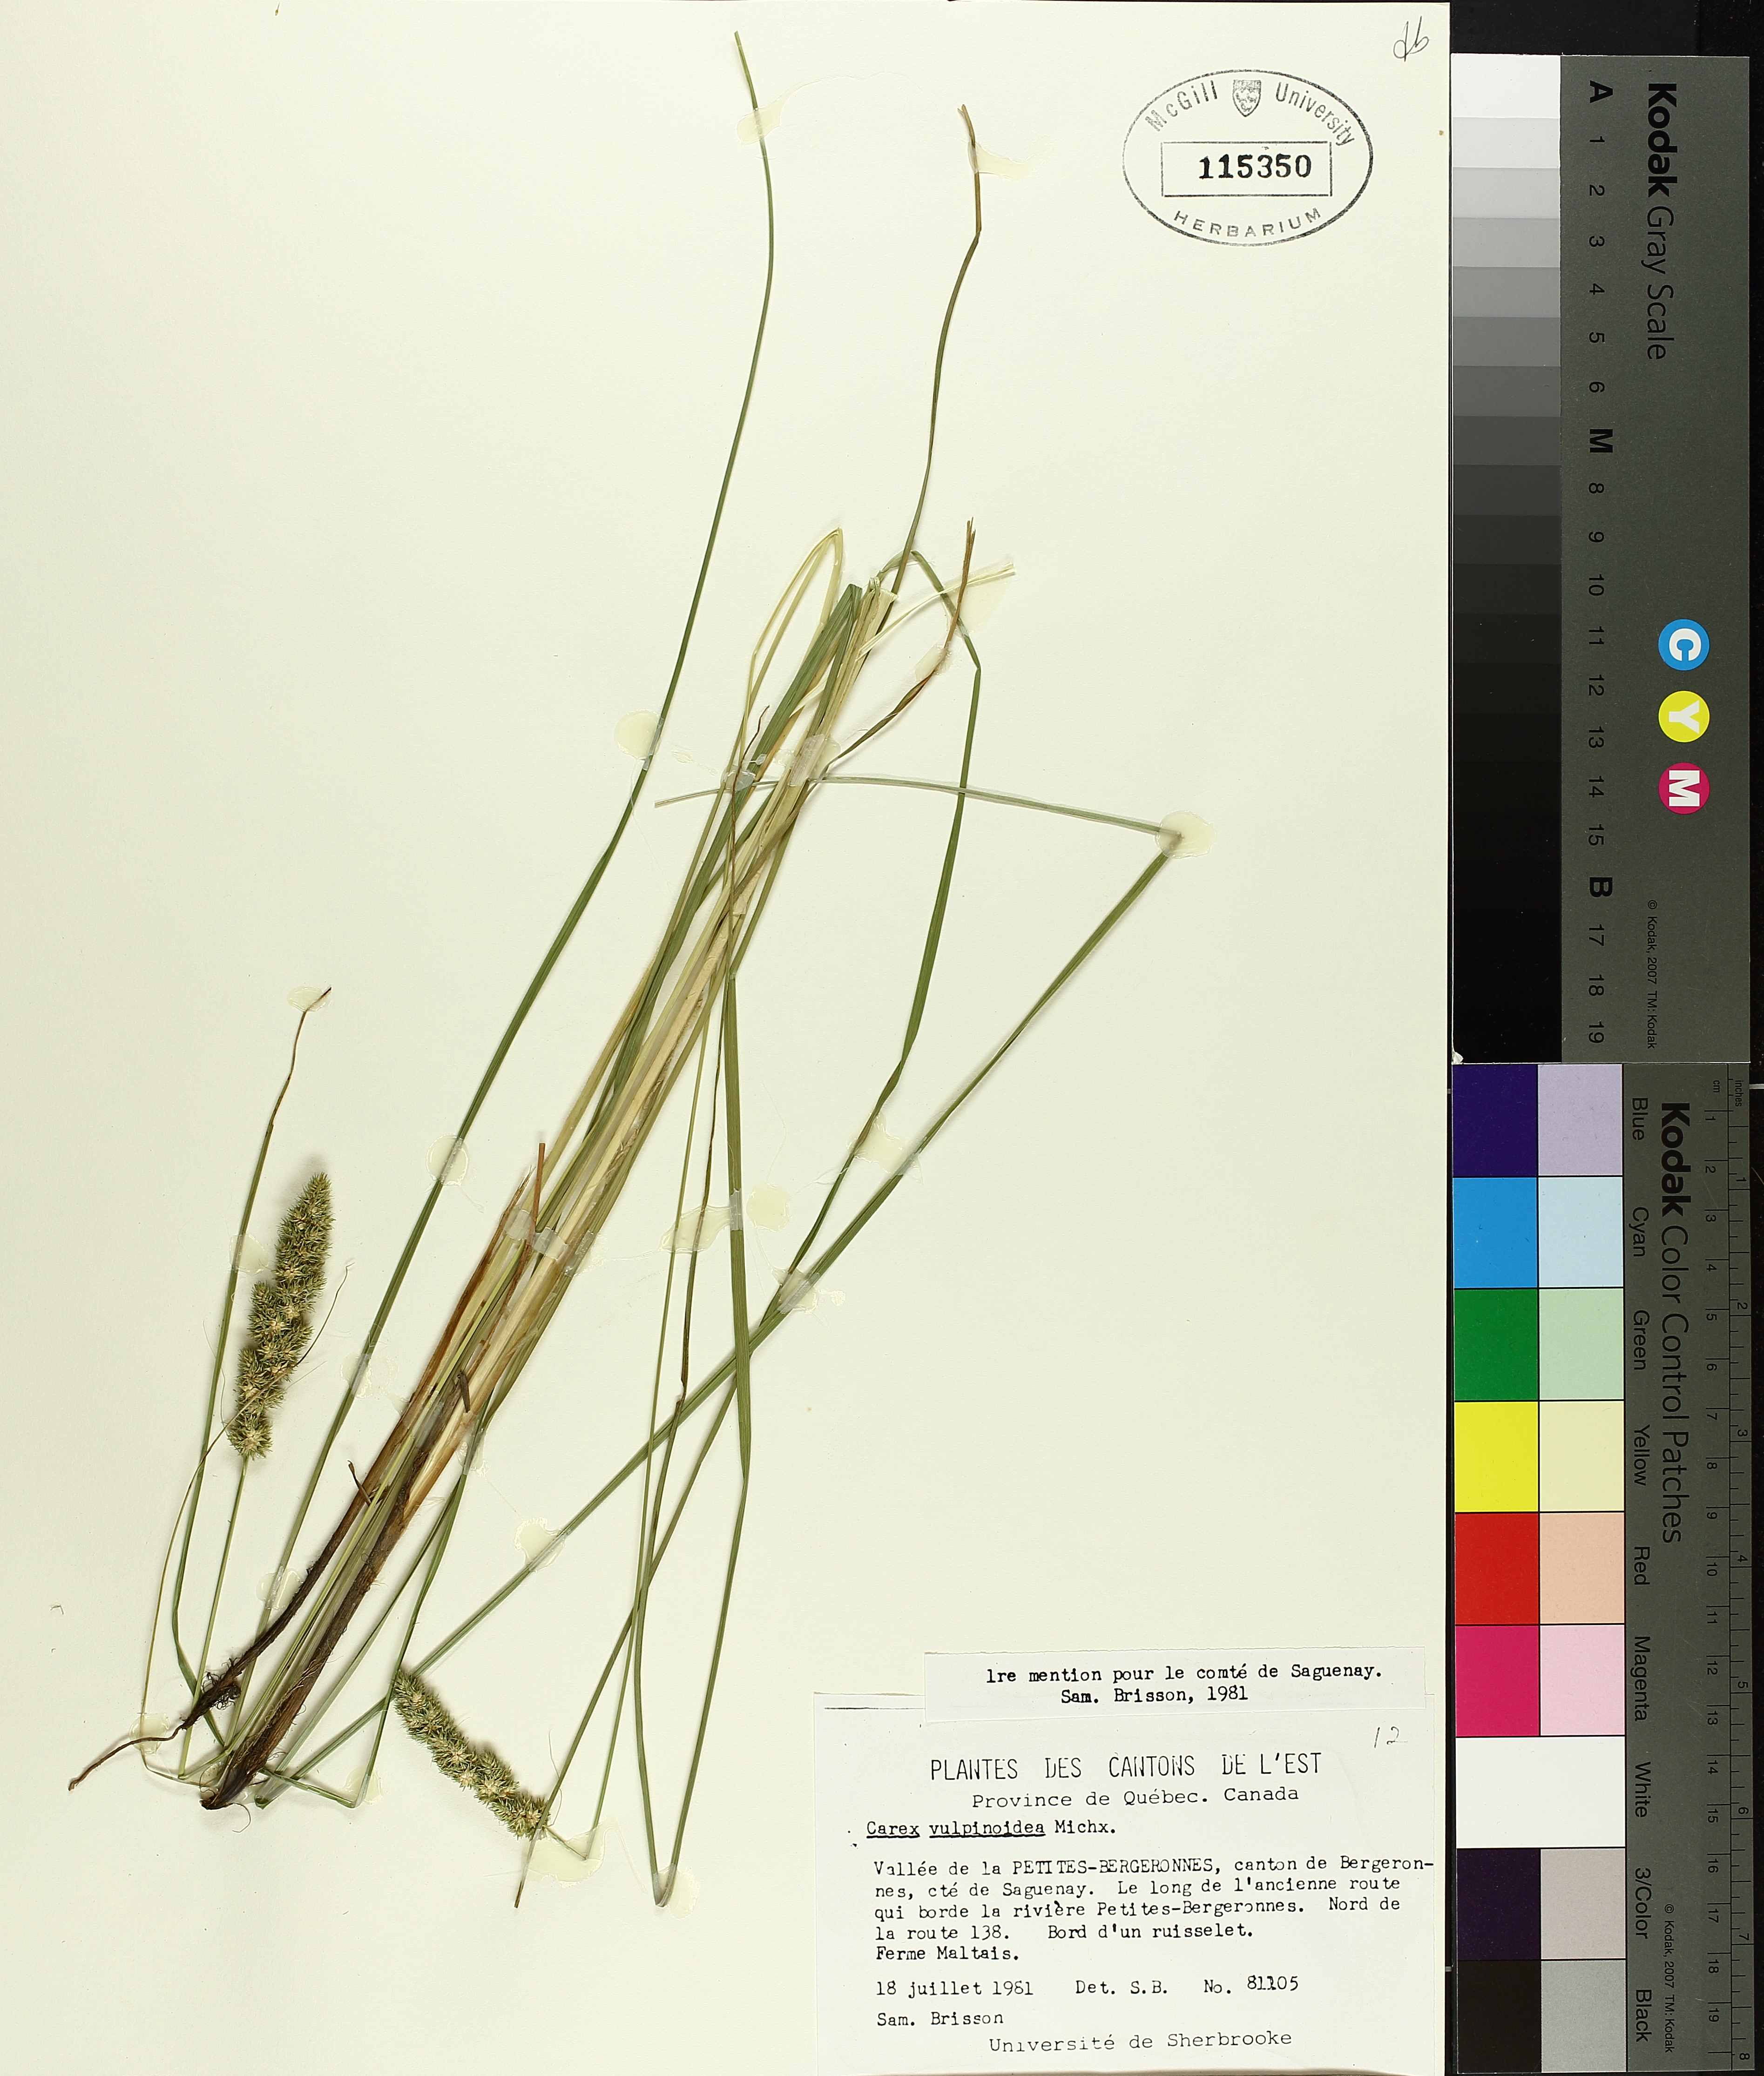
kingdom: Plantae
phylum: Tracheophyta
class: Liliopsida
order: Poales
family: Cyperaceae
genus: Carex
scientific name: Carex vulpinoidea
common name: American fox-sedge
